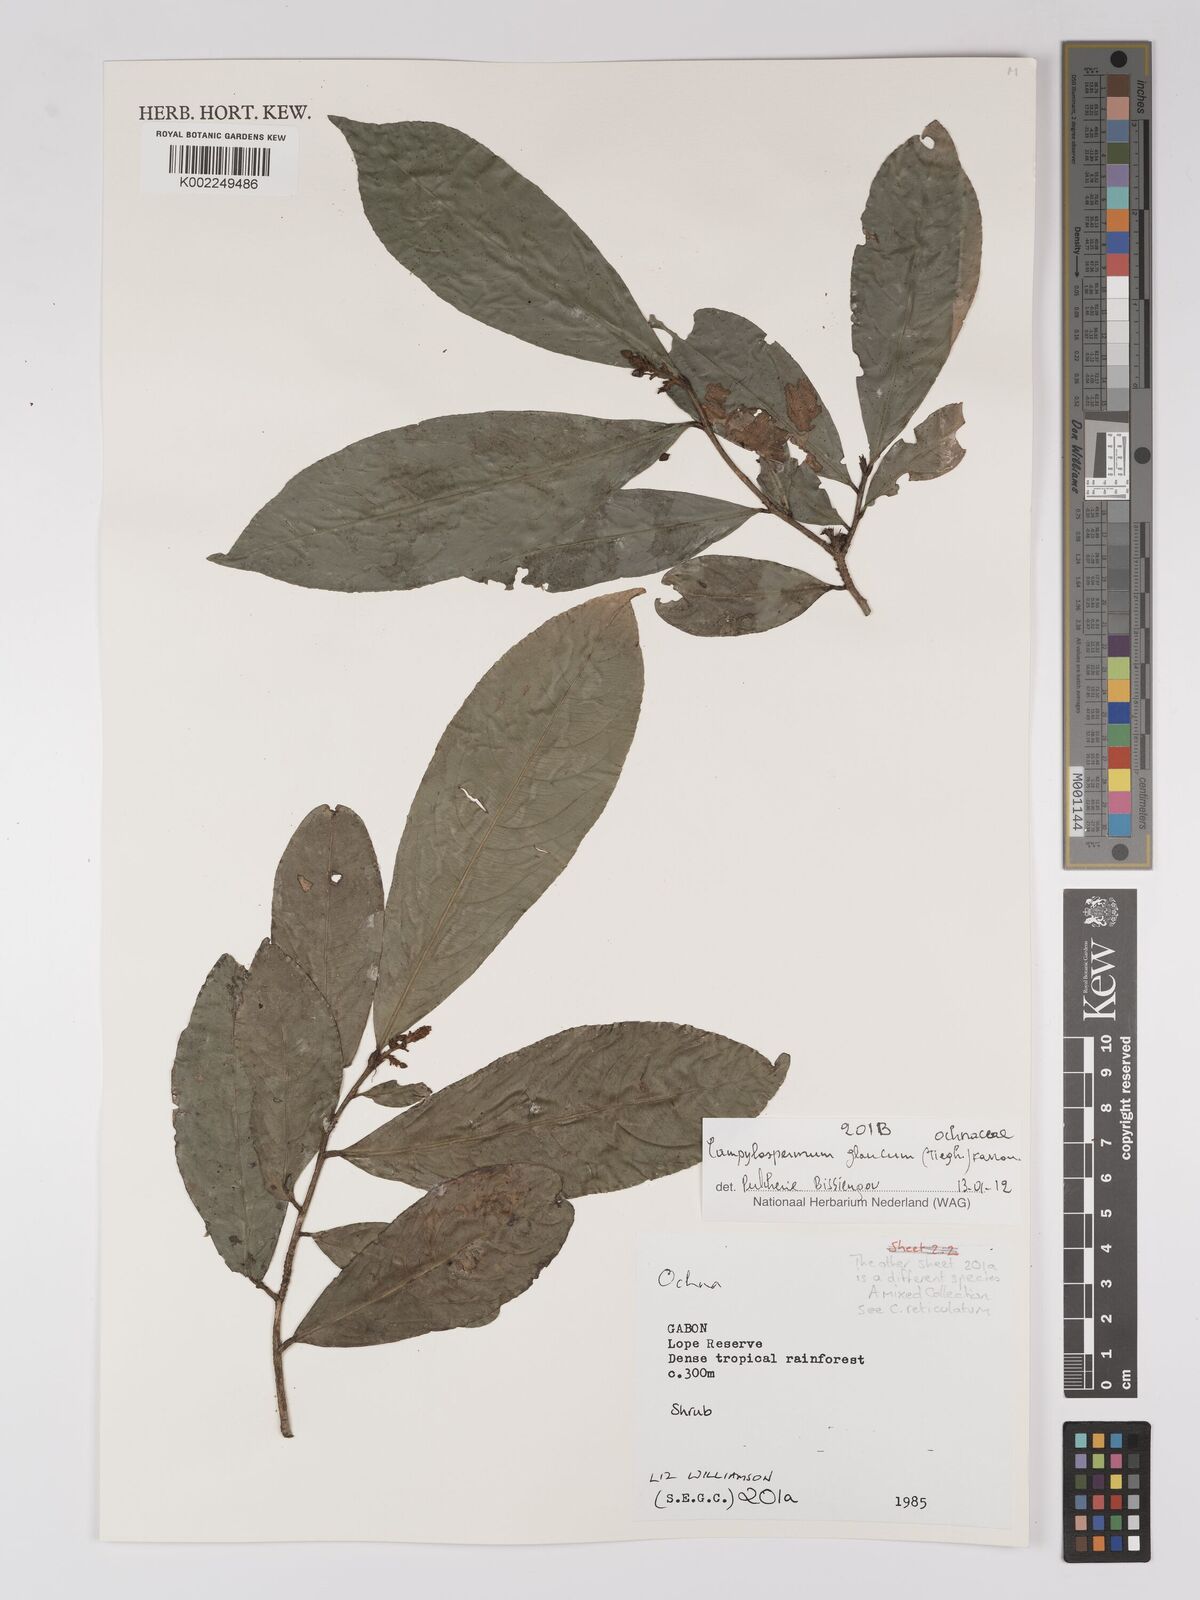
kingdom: Plantae
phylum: Tracheophyta
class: Magnoliopsida
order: Malpighiales
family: Ochnaceae
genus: Campylospermum
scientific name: Campylospermum glaucum
